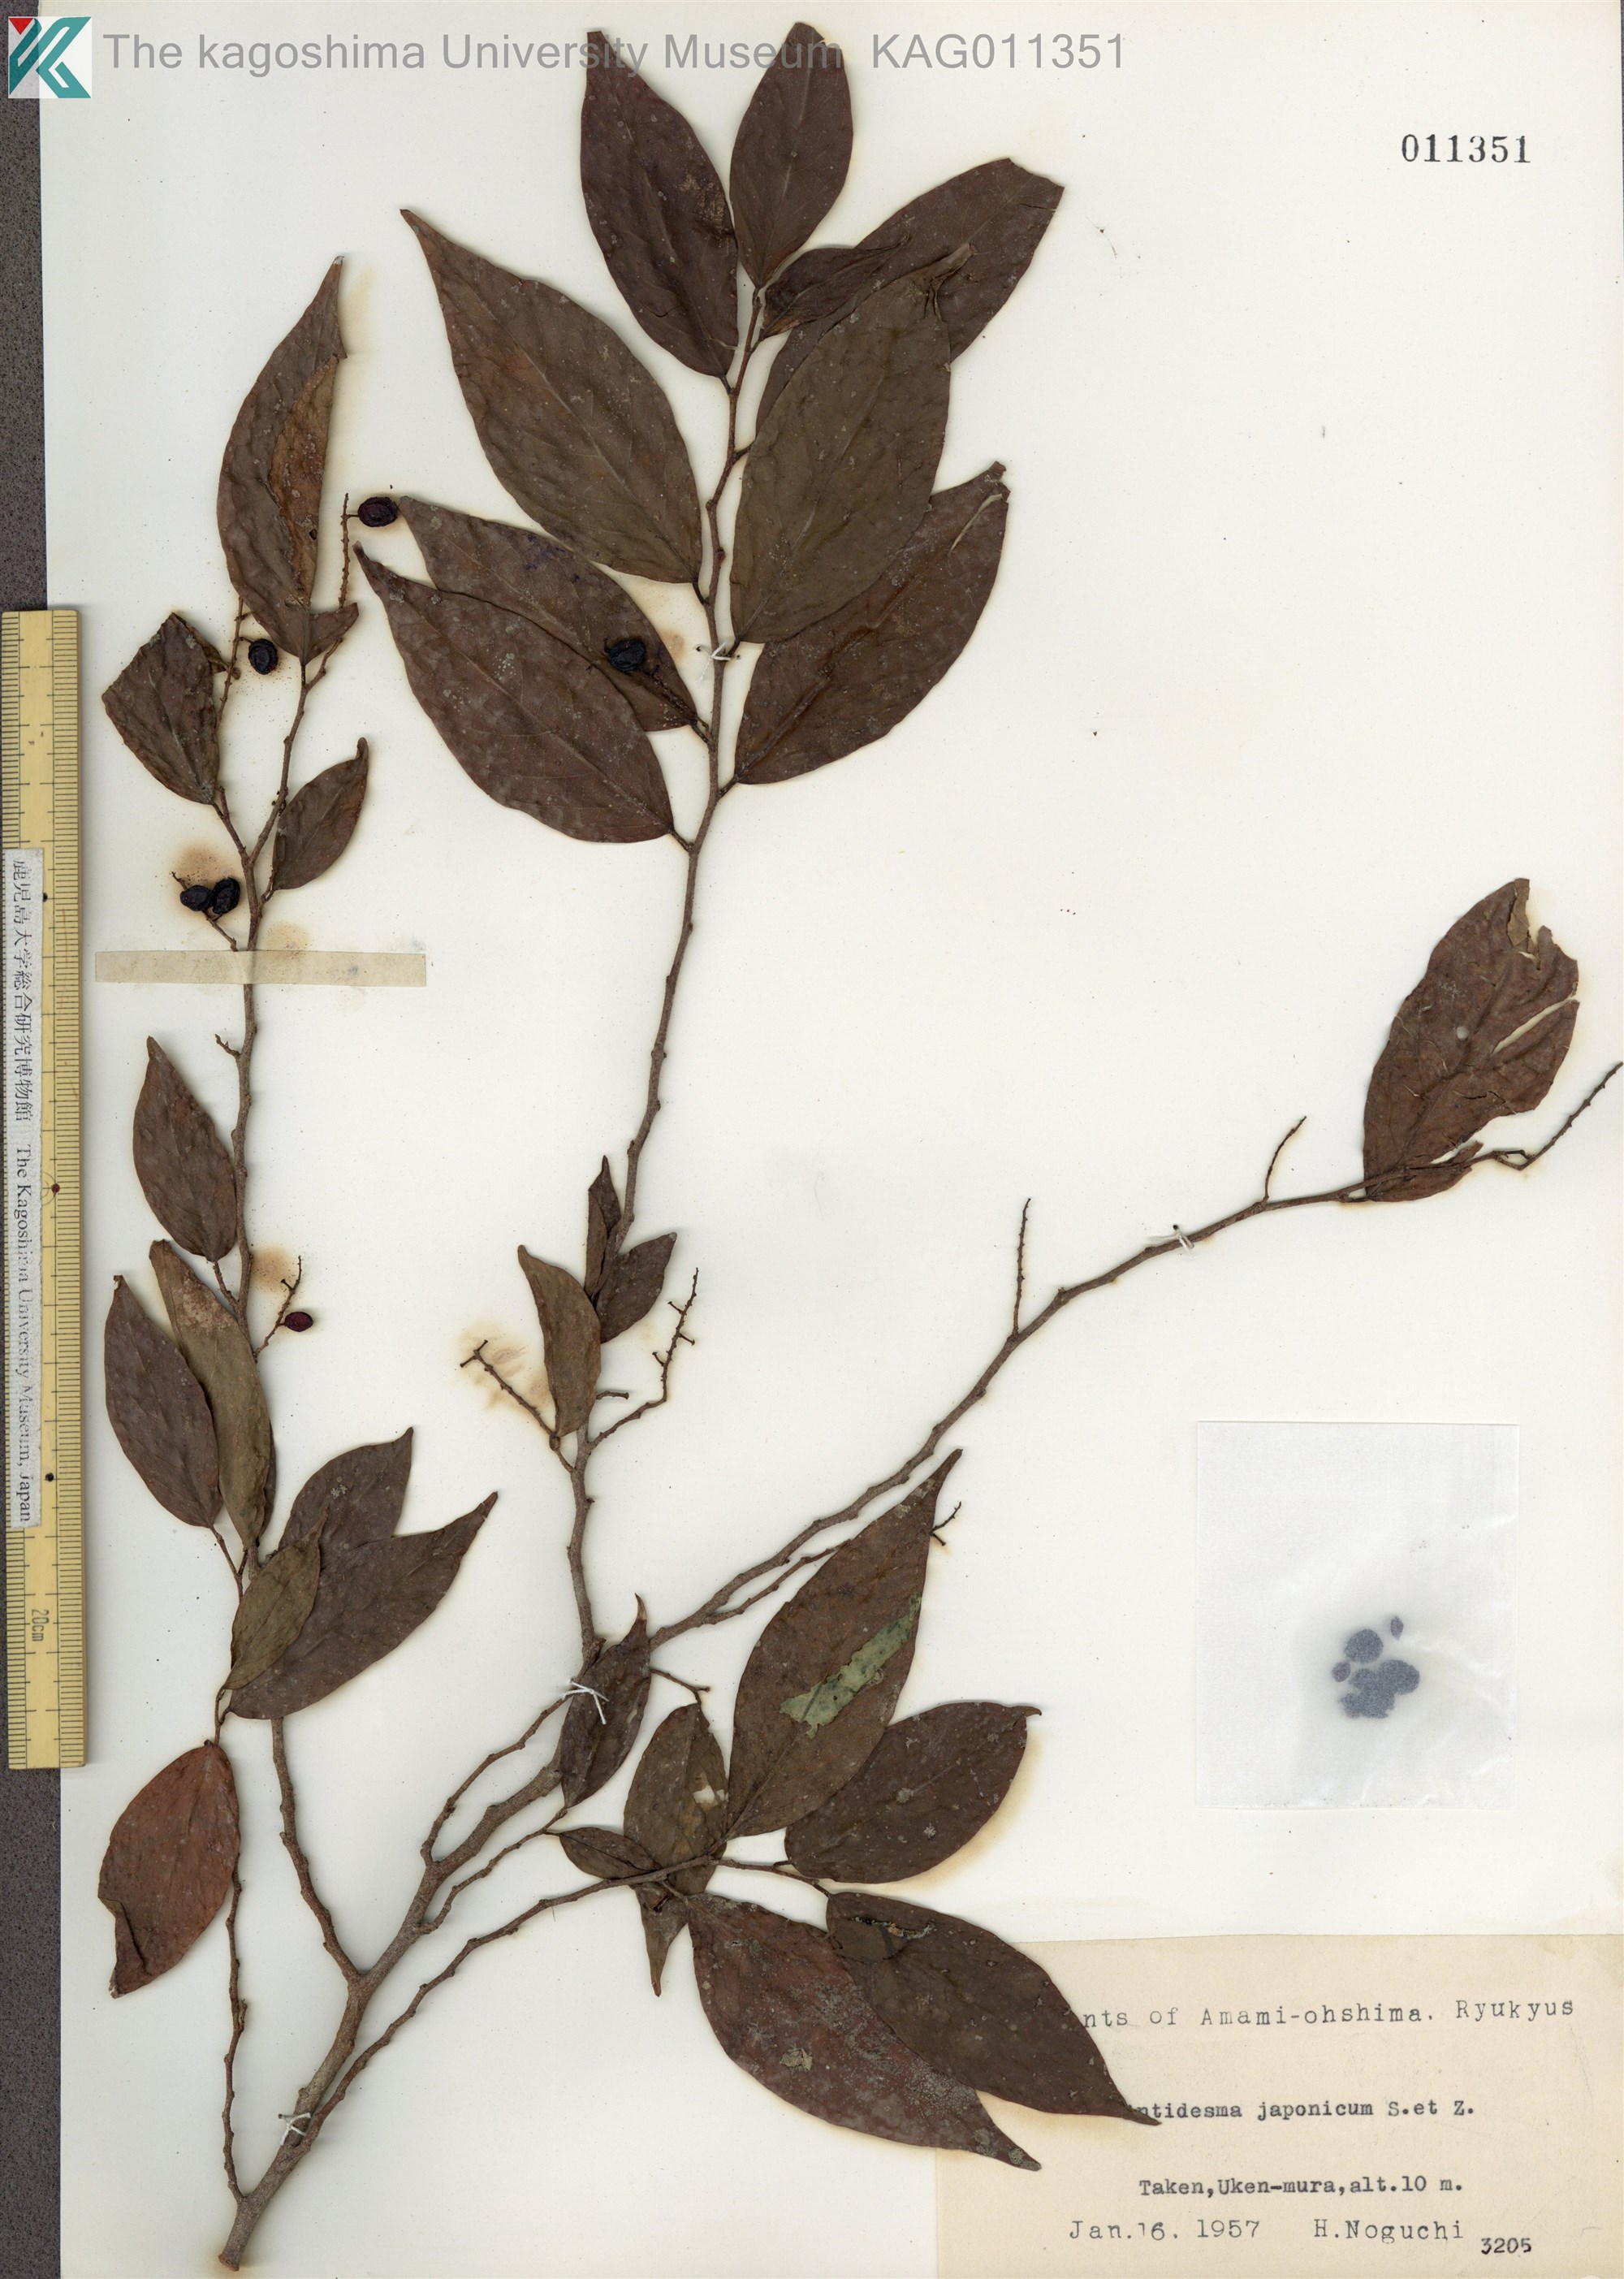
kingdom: Plantae
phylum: Tracheophyta
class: Magnoliopsida
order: Malpighiales
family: Phyllanthaceae
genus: Antidesma
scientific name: Antidesma japonicum
